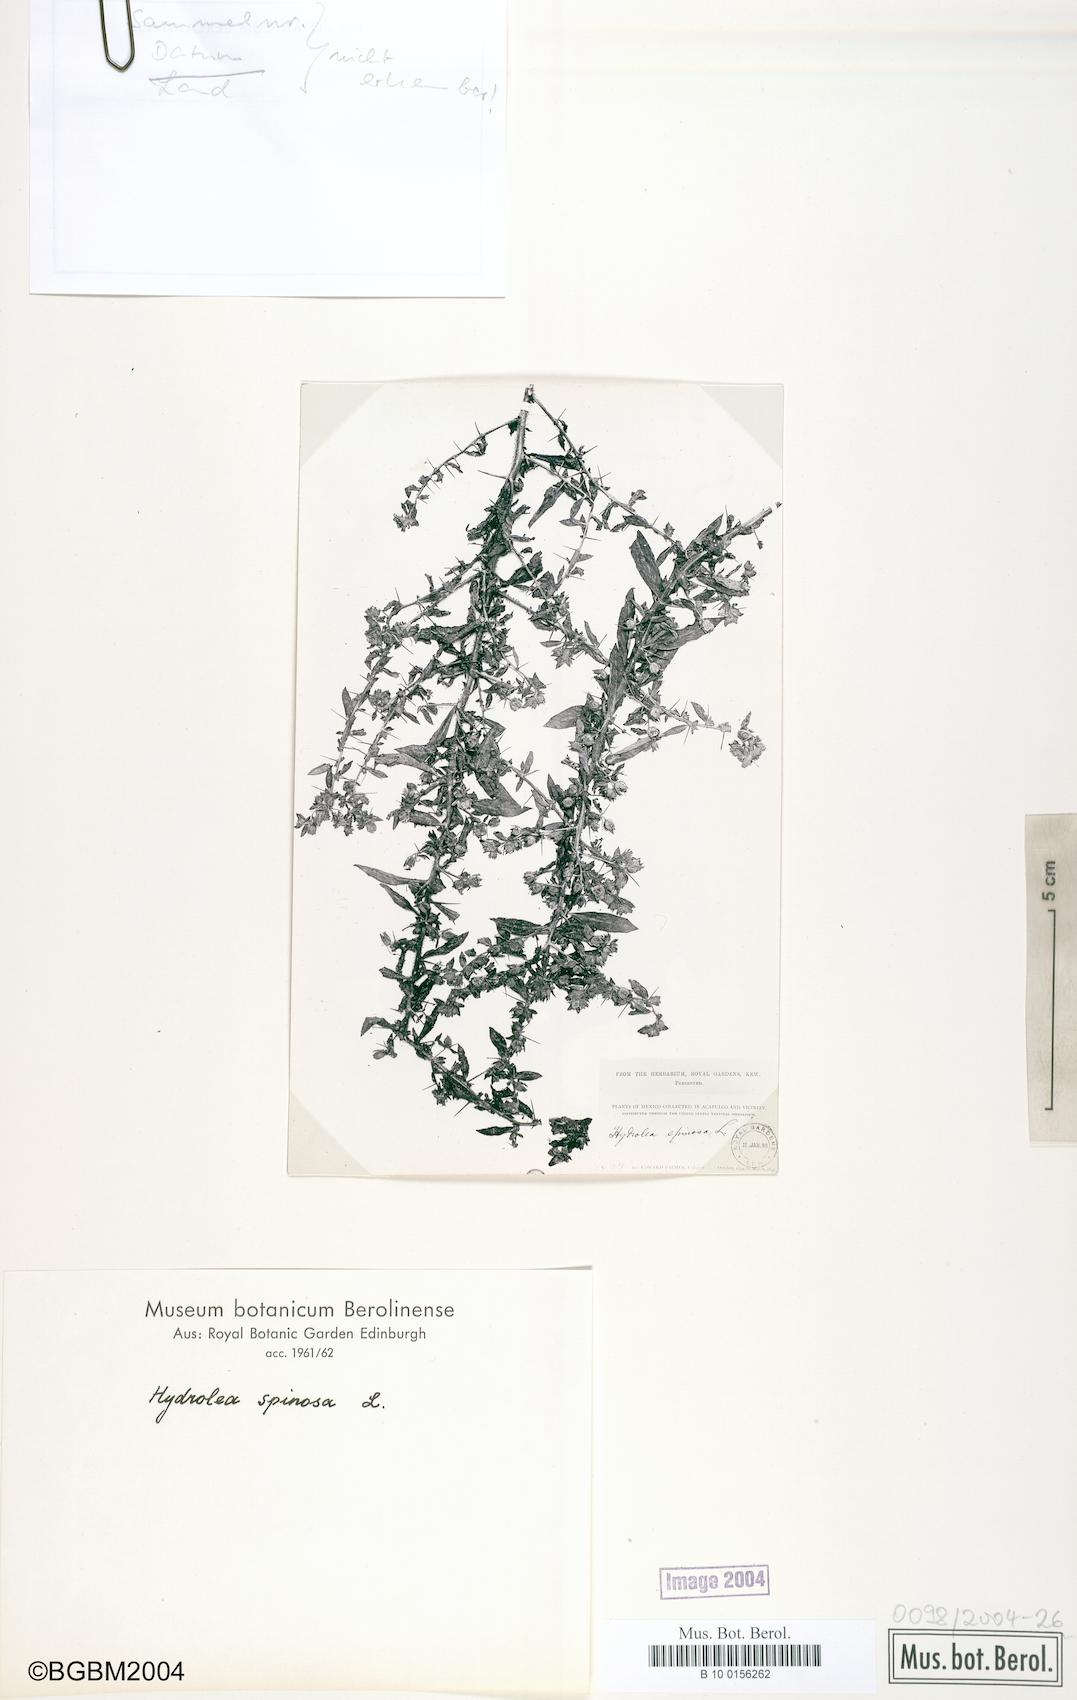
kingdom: Plantae
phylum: Tracheophyta
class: Magnoliopsida
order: Solanales
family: Hydroleaceae
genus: Hydrolea
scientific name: Hydrolea spinosa
